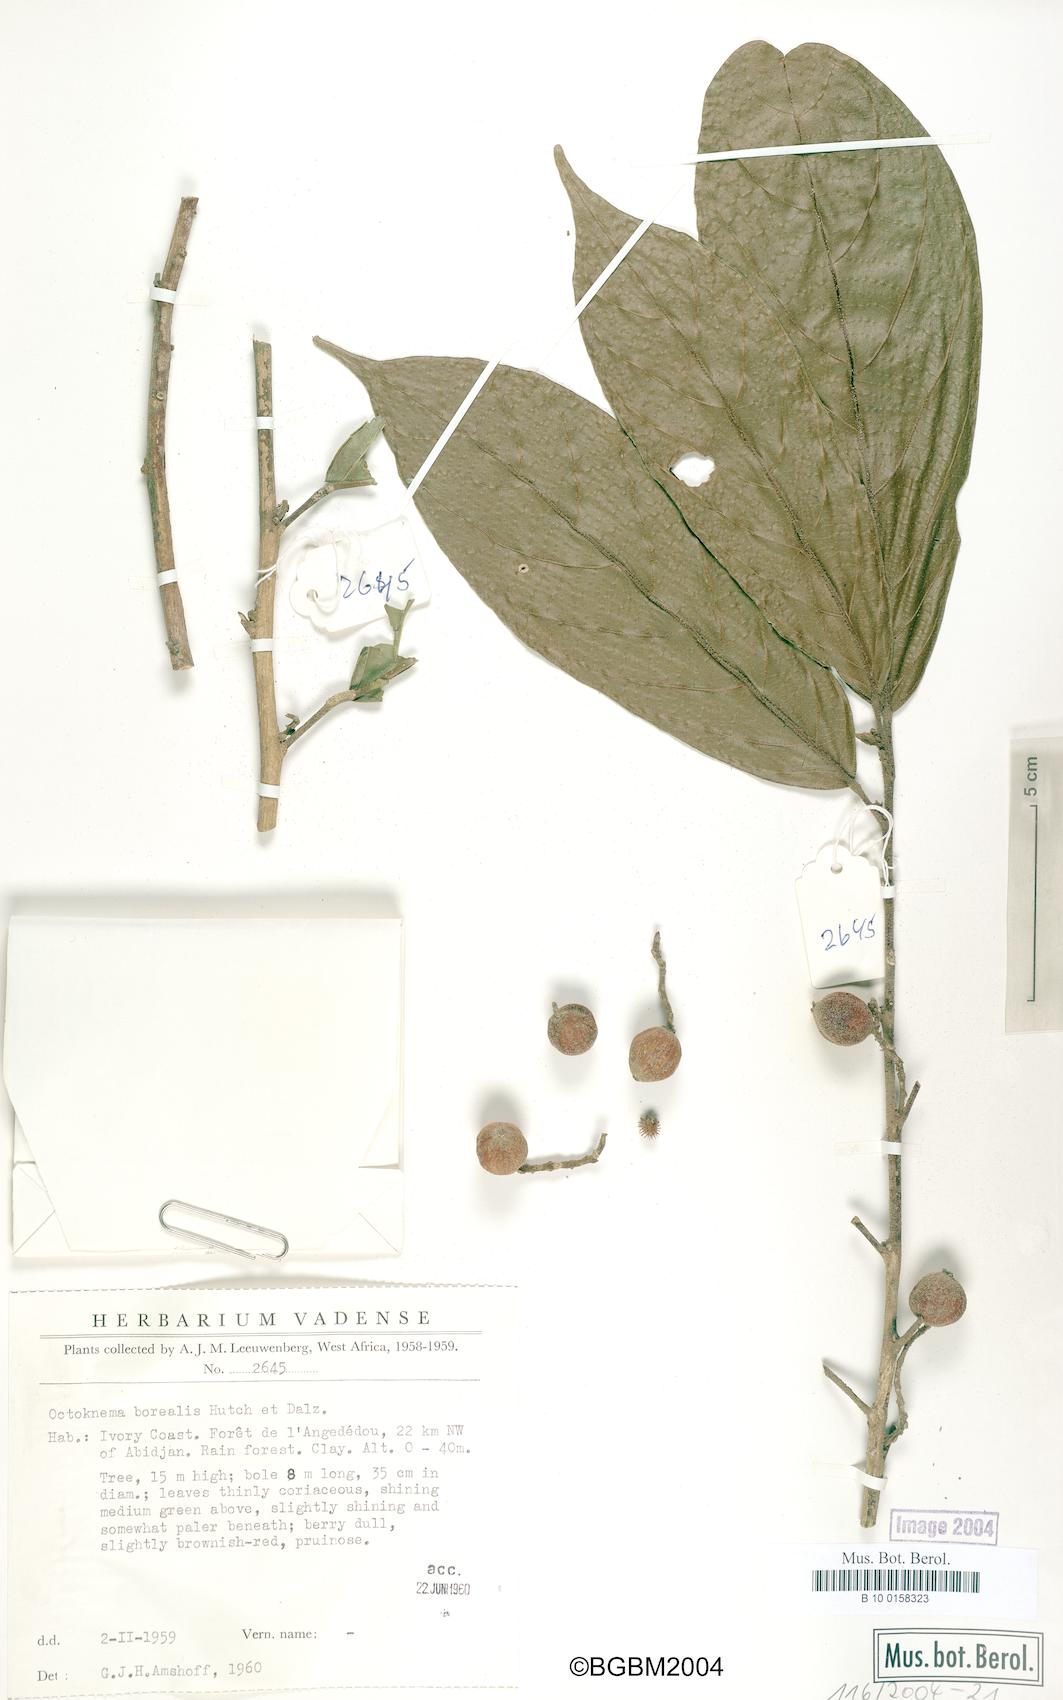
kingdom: Plantae
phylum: Tracheophyta
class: Magnoliopsida
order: Santalales
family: Octoknemaceae
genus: Octoknema
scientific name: Octoknema borealis
